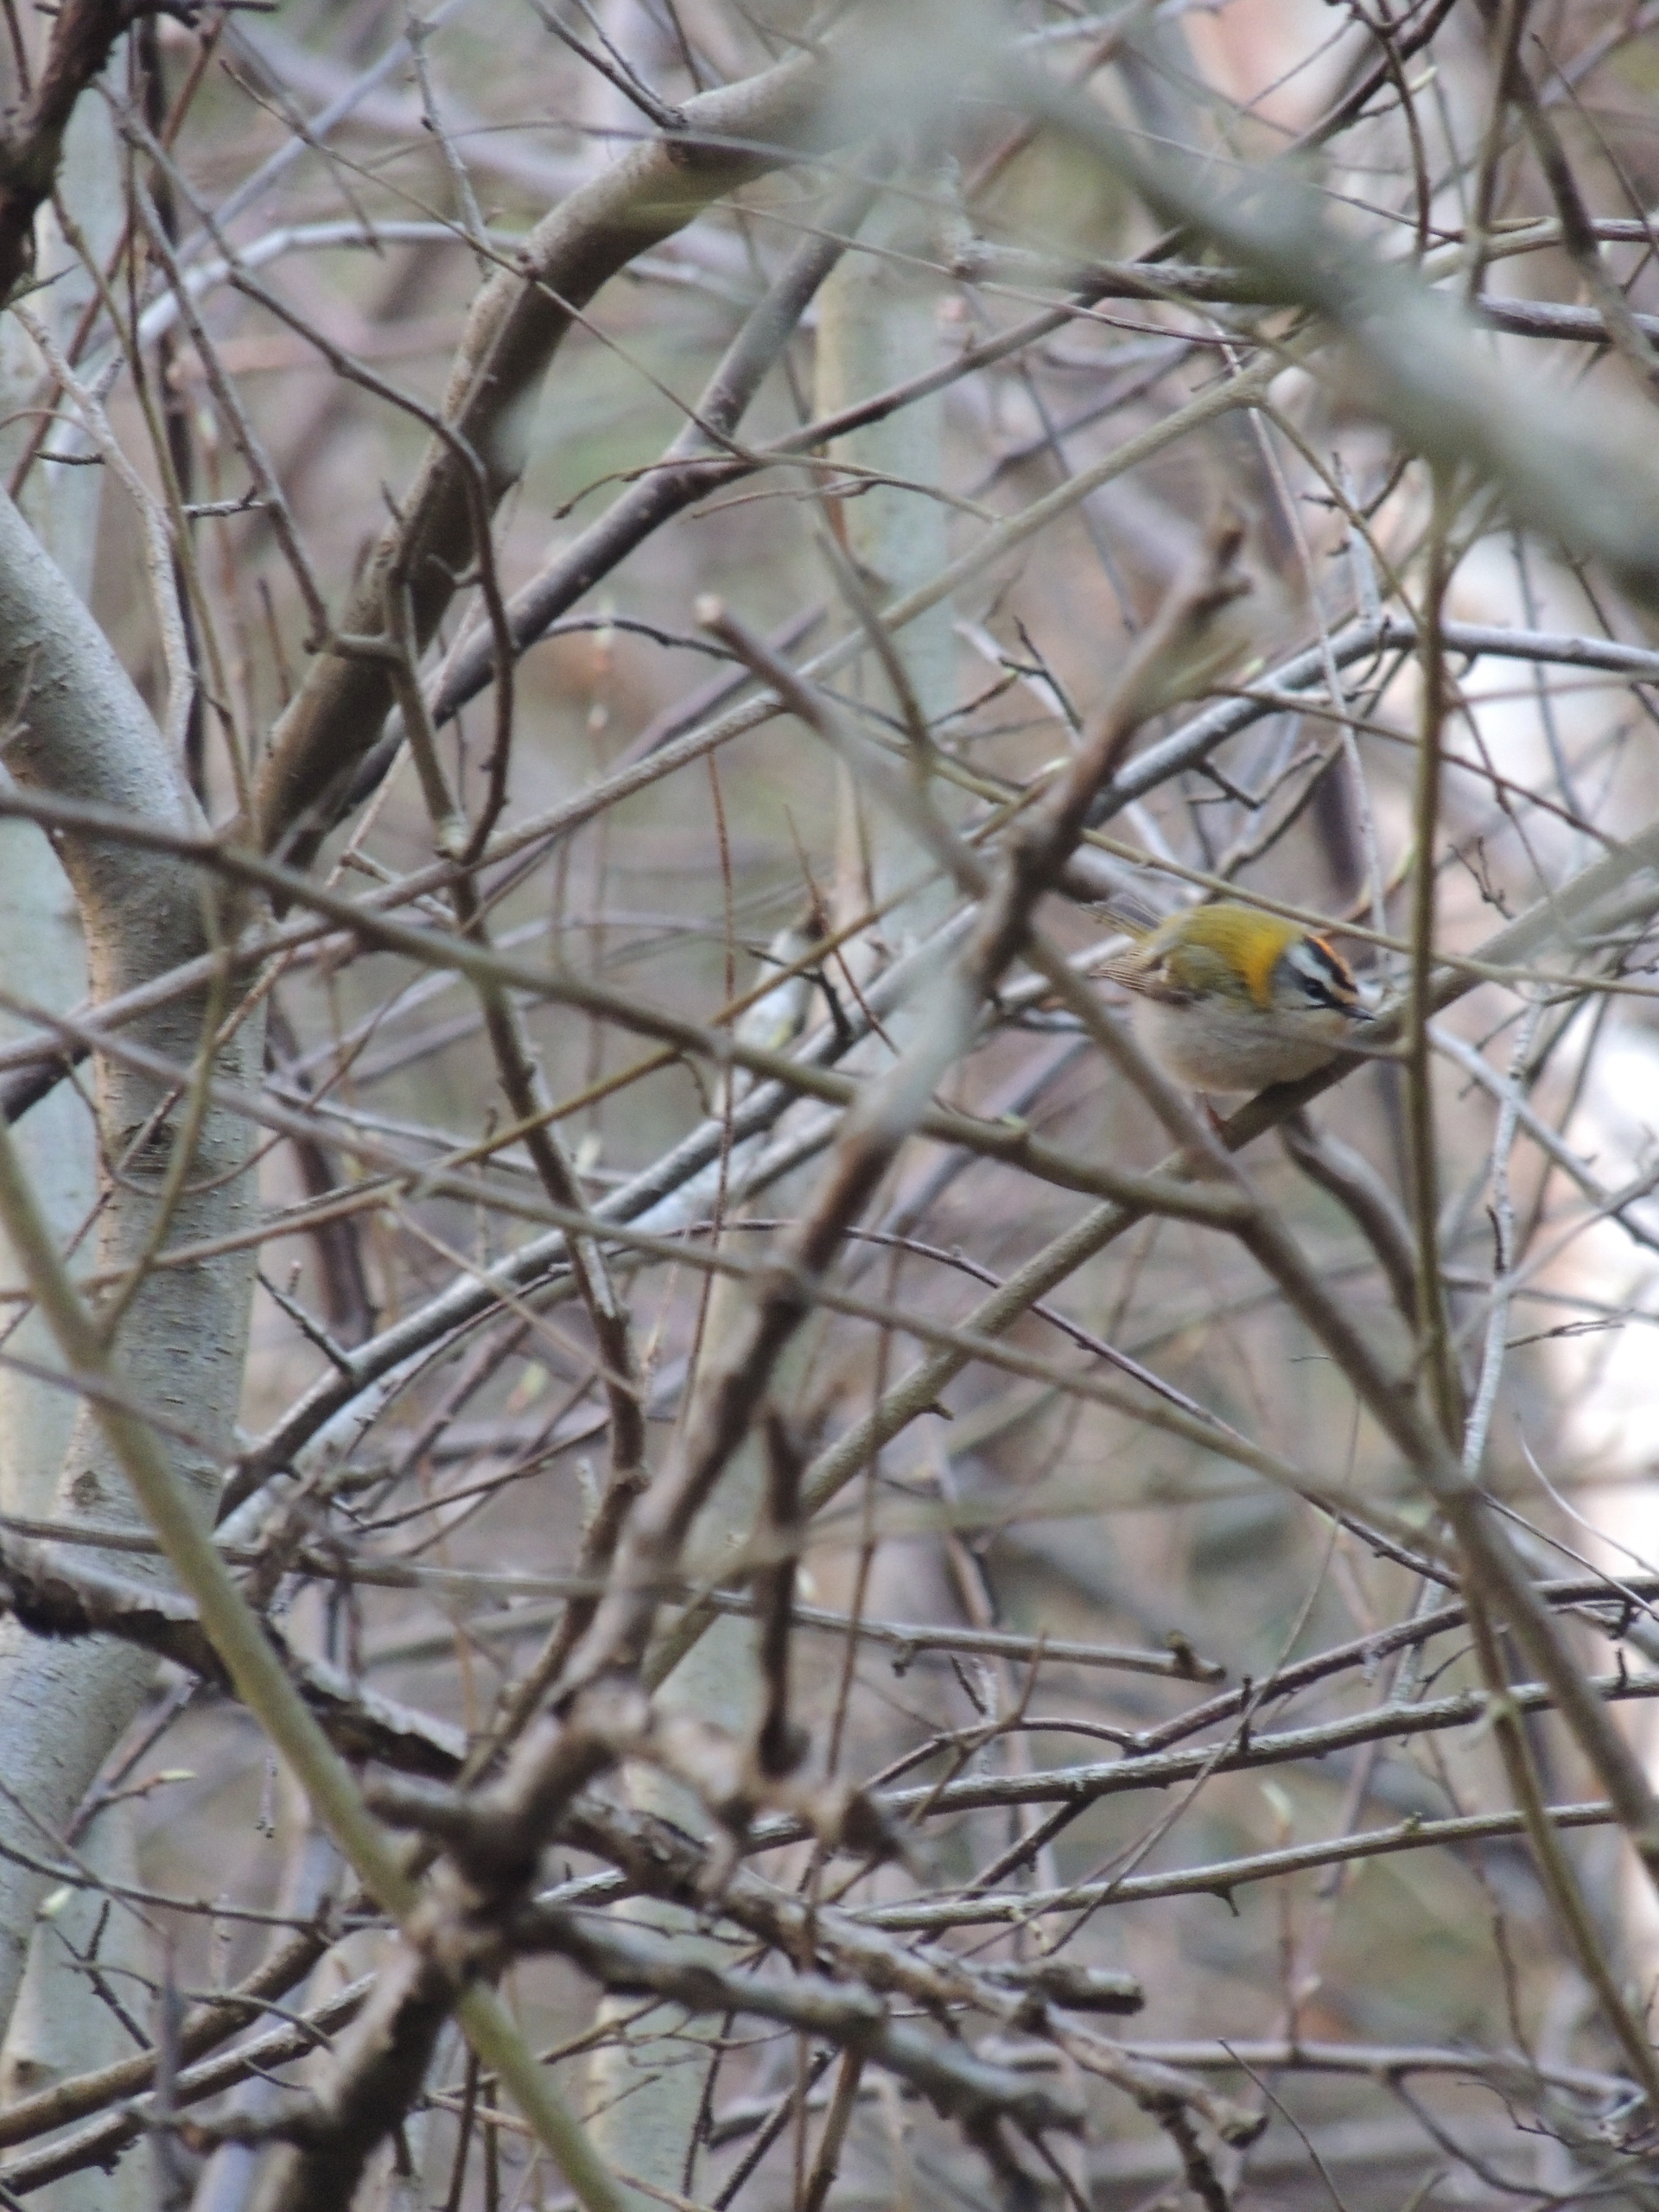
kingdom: Animalia
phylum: Chordata
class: Aves
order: Passeriformes
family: Regulidae
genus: Regulus
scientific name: Regulus ignicapilla
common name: Rødtoppet fuglekonge
